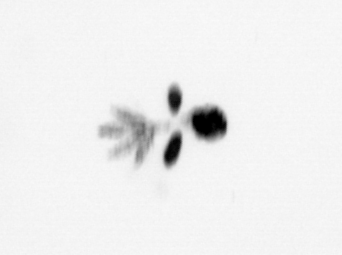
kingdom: Animalia
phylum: Arthropoda
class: Copepoda
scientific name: Copepoda
